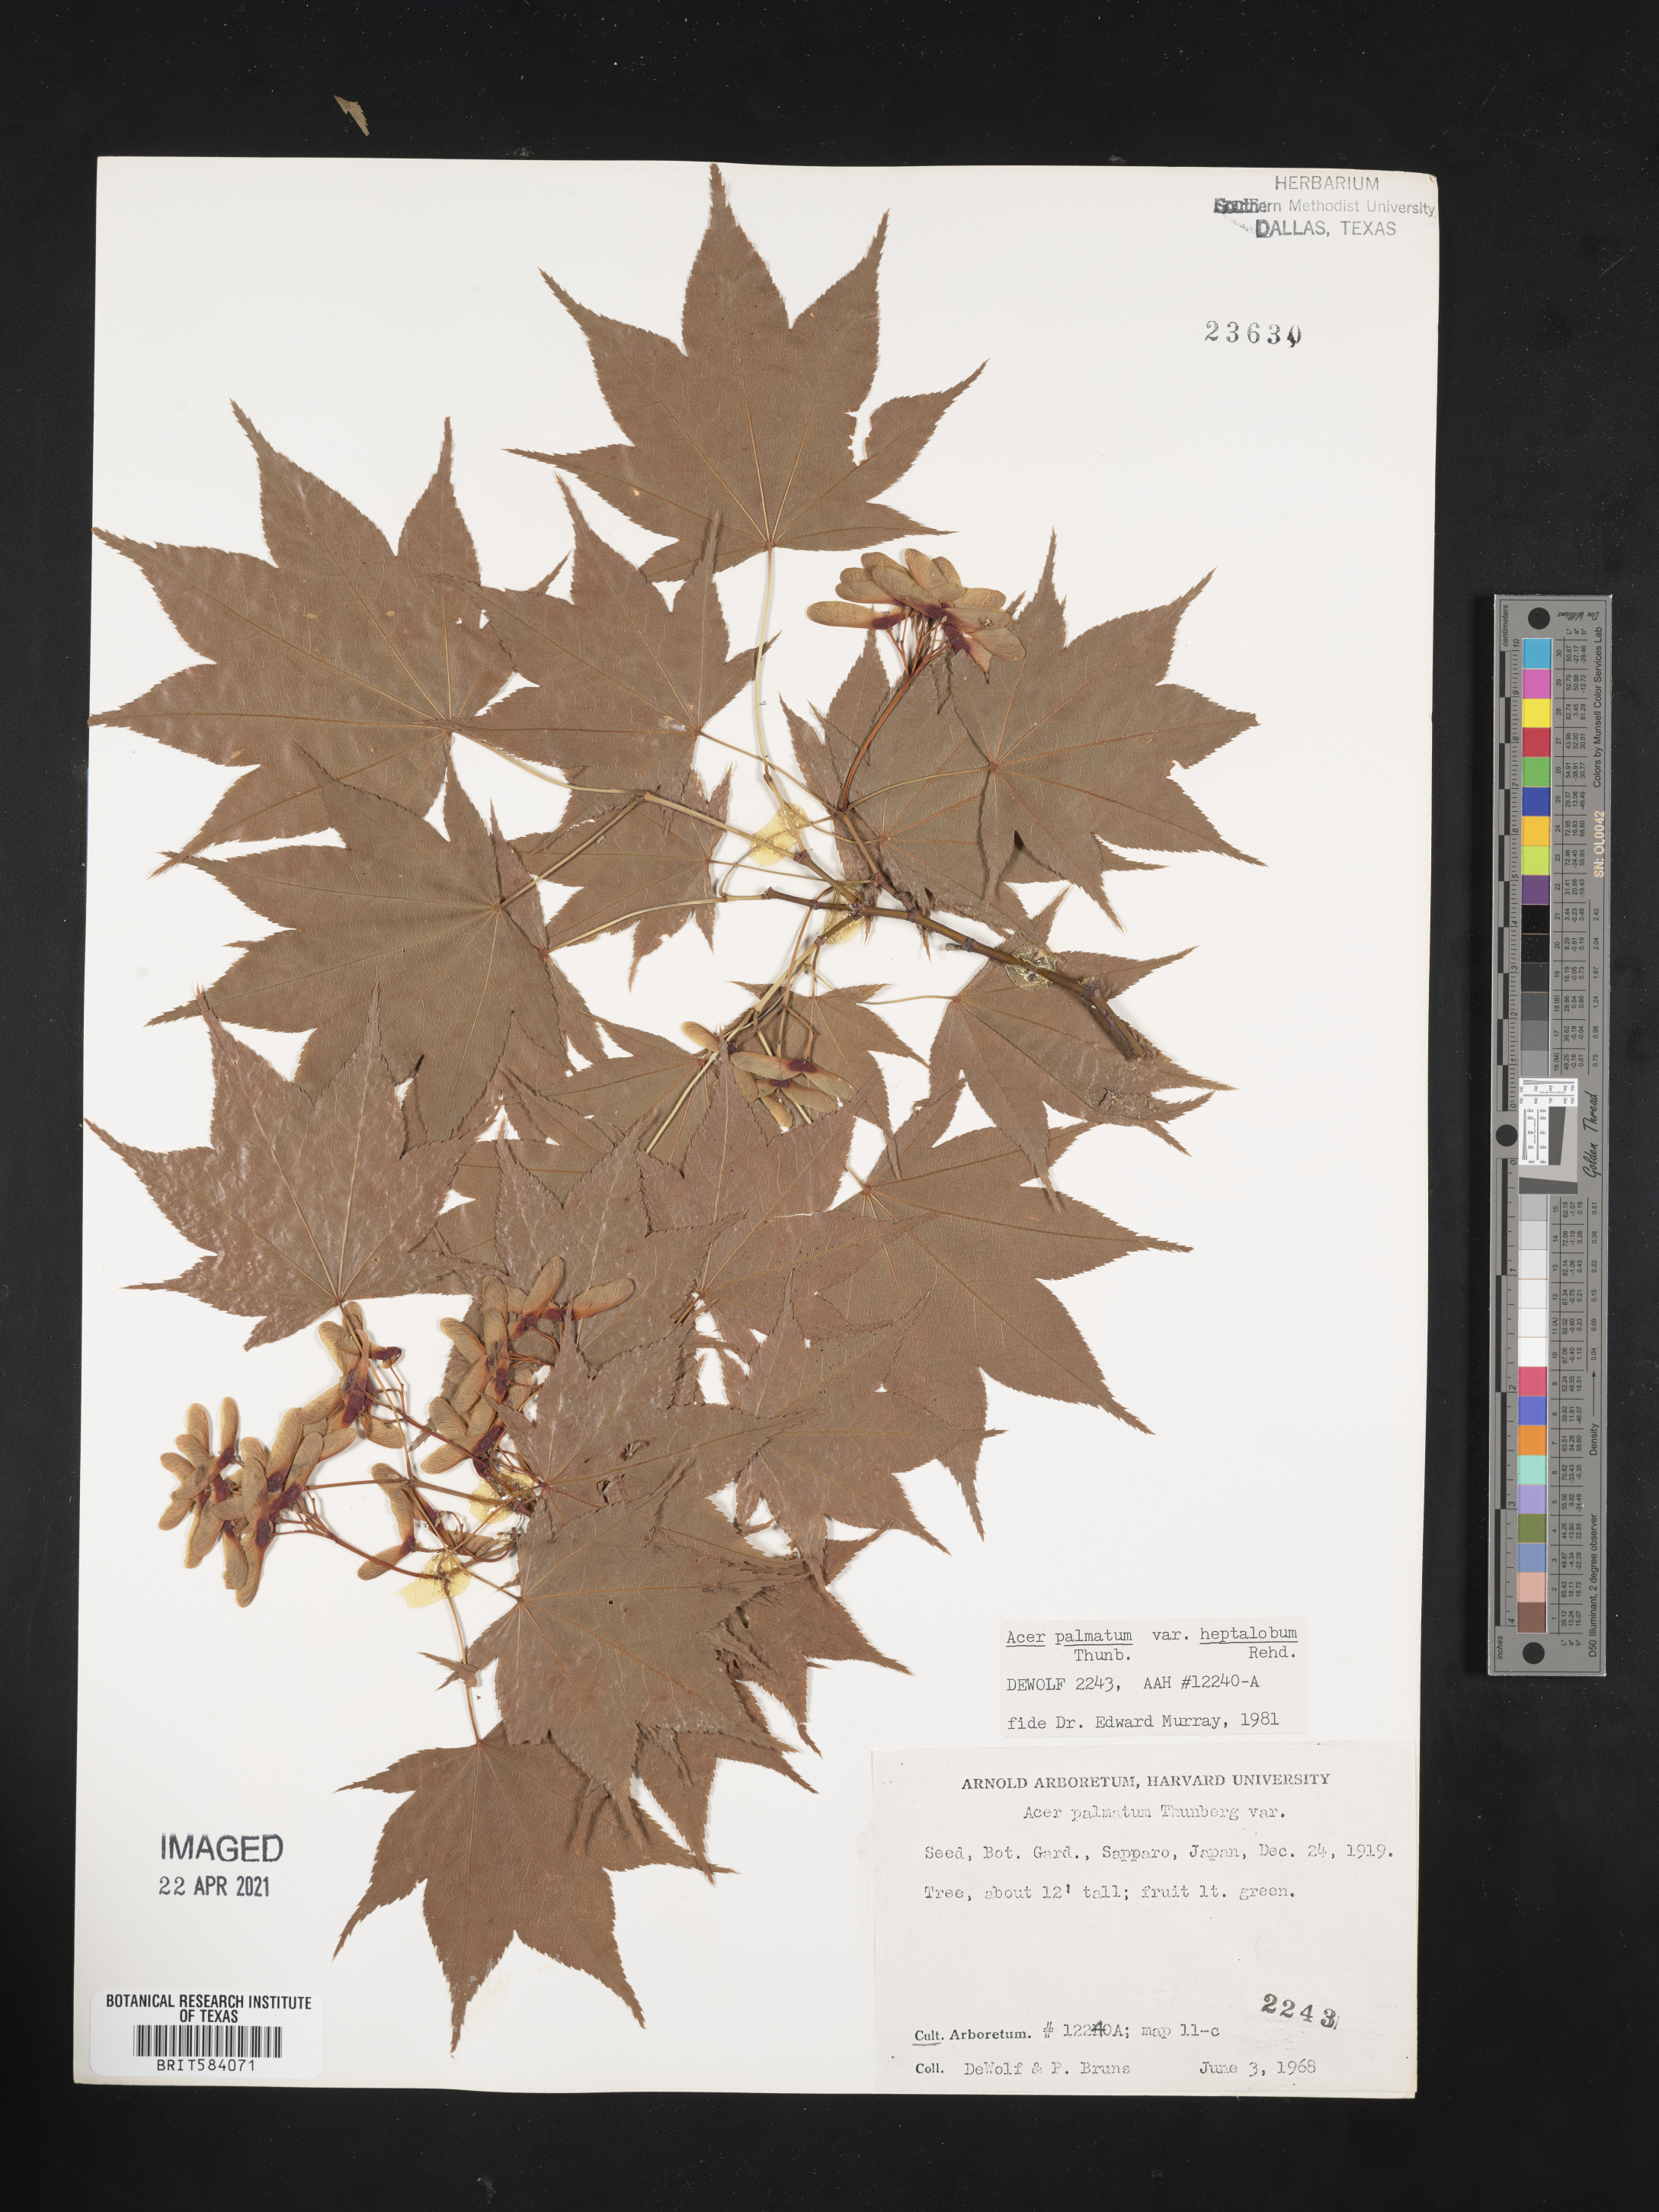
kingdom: Plantae
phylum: Tracheophyta
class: Magnoliopsida
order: Sapindales
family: Sapindaceae
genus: Acer
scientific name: Acer palmatum
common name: Japanese maple
